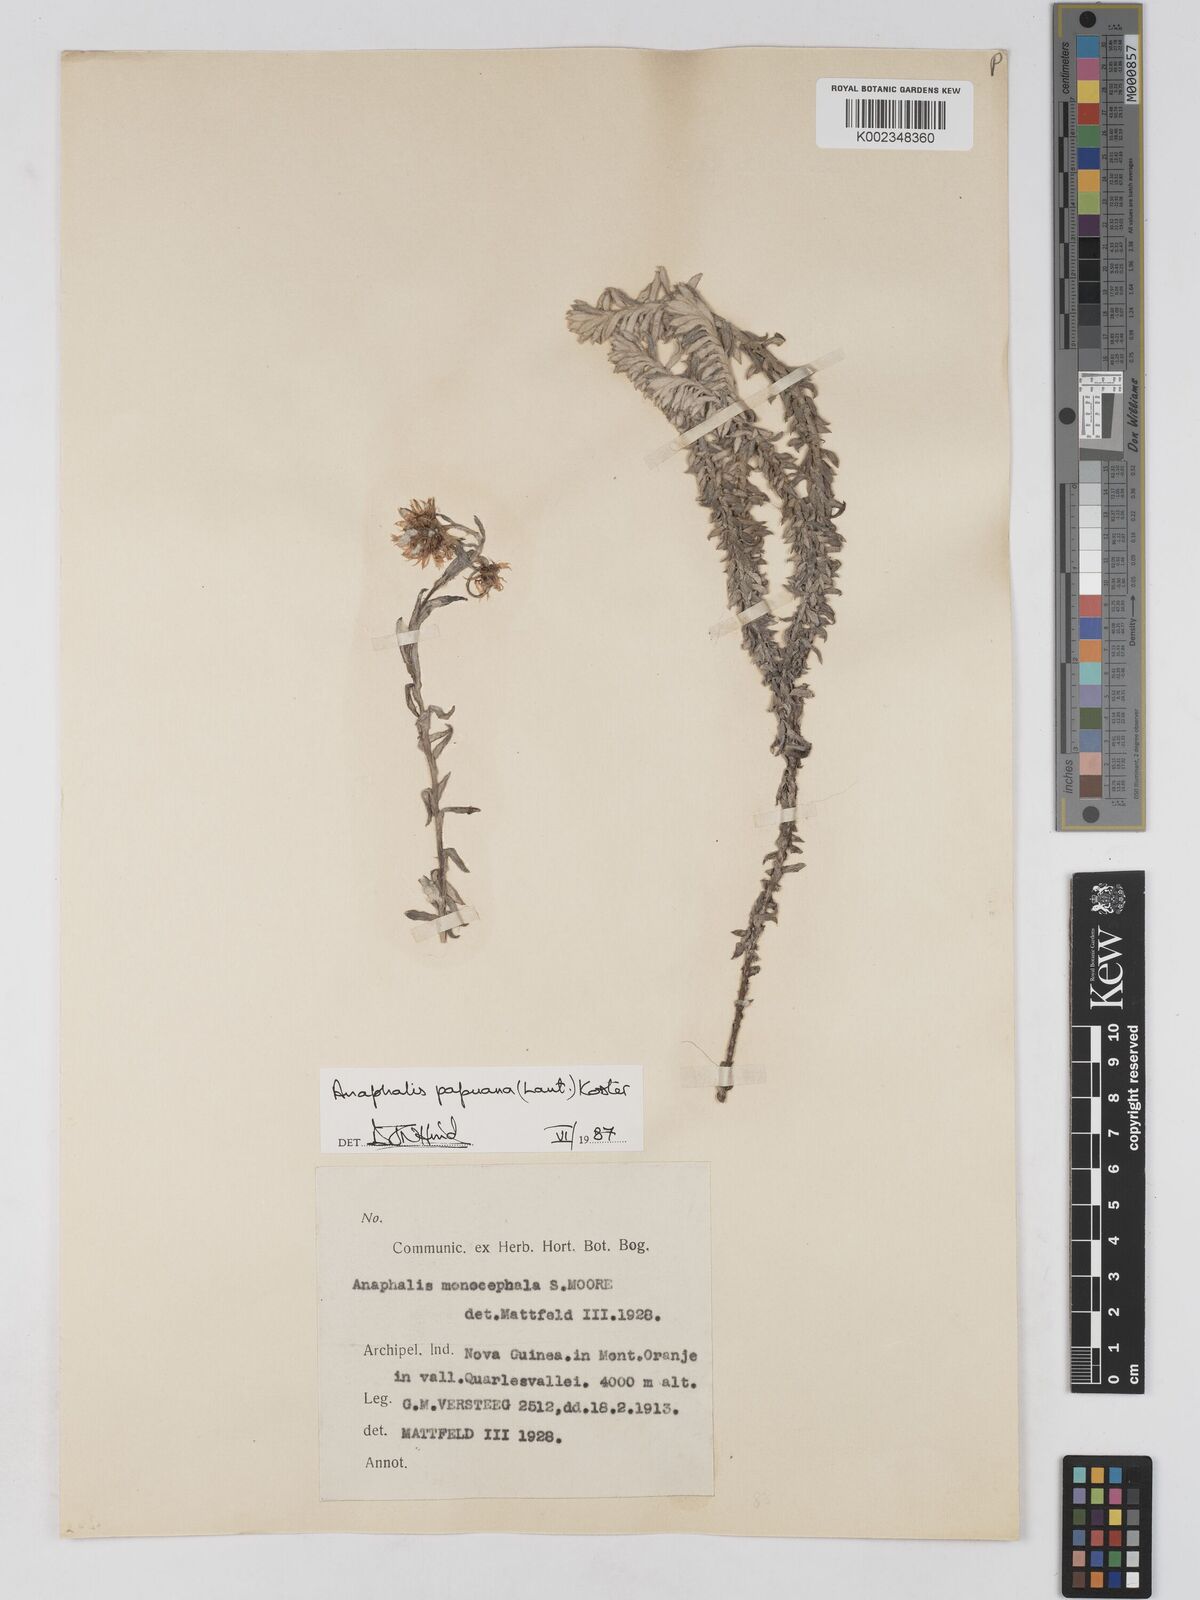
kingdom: Plantae
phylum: Tracheophyta
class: Magnoliopsida
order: Asterales
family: Asteraceae
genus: Anaphalioides
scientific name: Anaphalioides papuana
